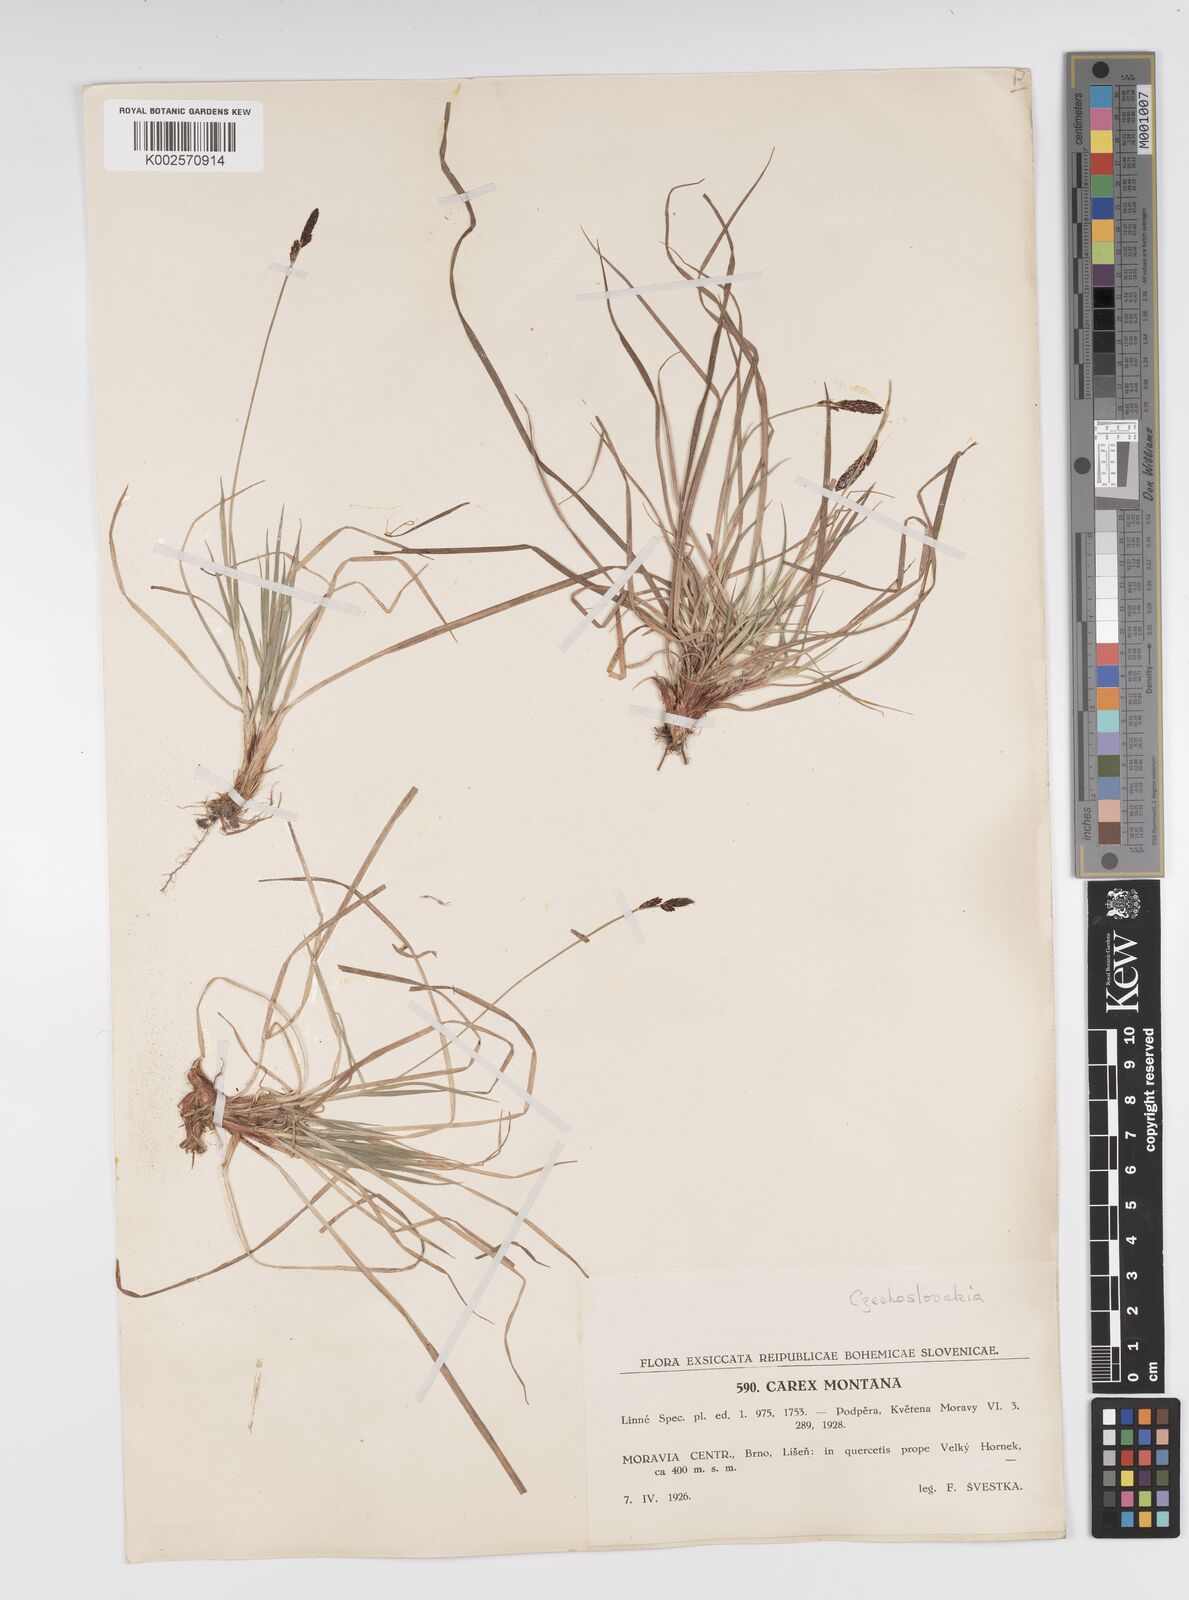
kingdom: Plantae
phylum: Tracheophyta
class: Liliopsida
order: Poales
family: Cyperaceae
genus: Carex
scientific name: Carex montana
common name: Soft-leaved sedge
